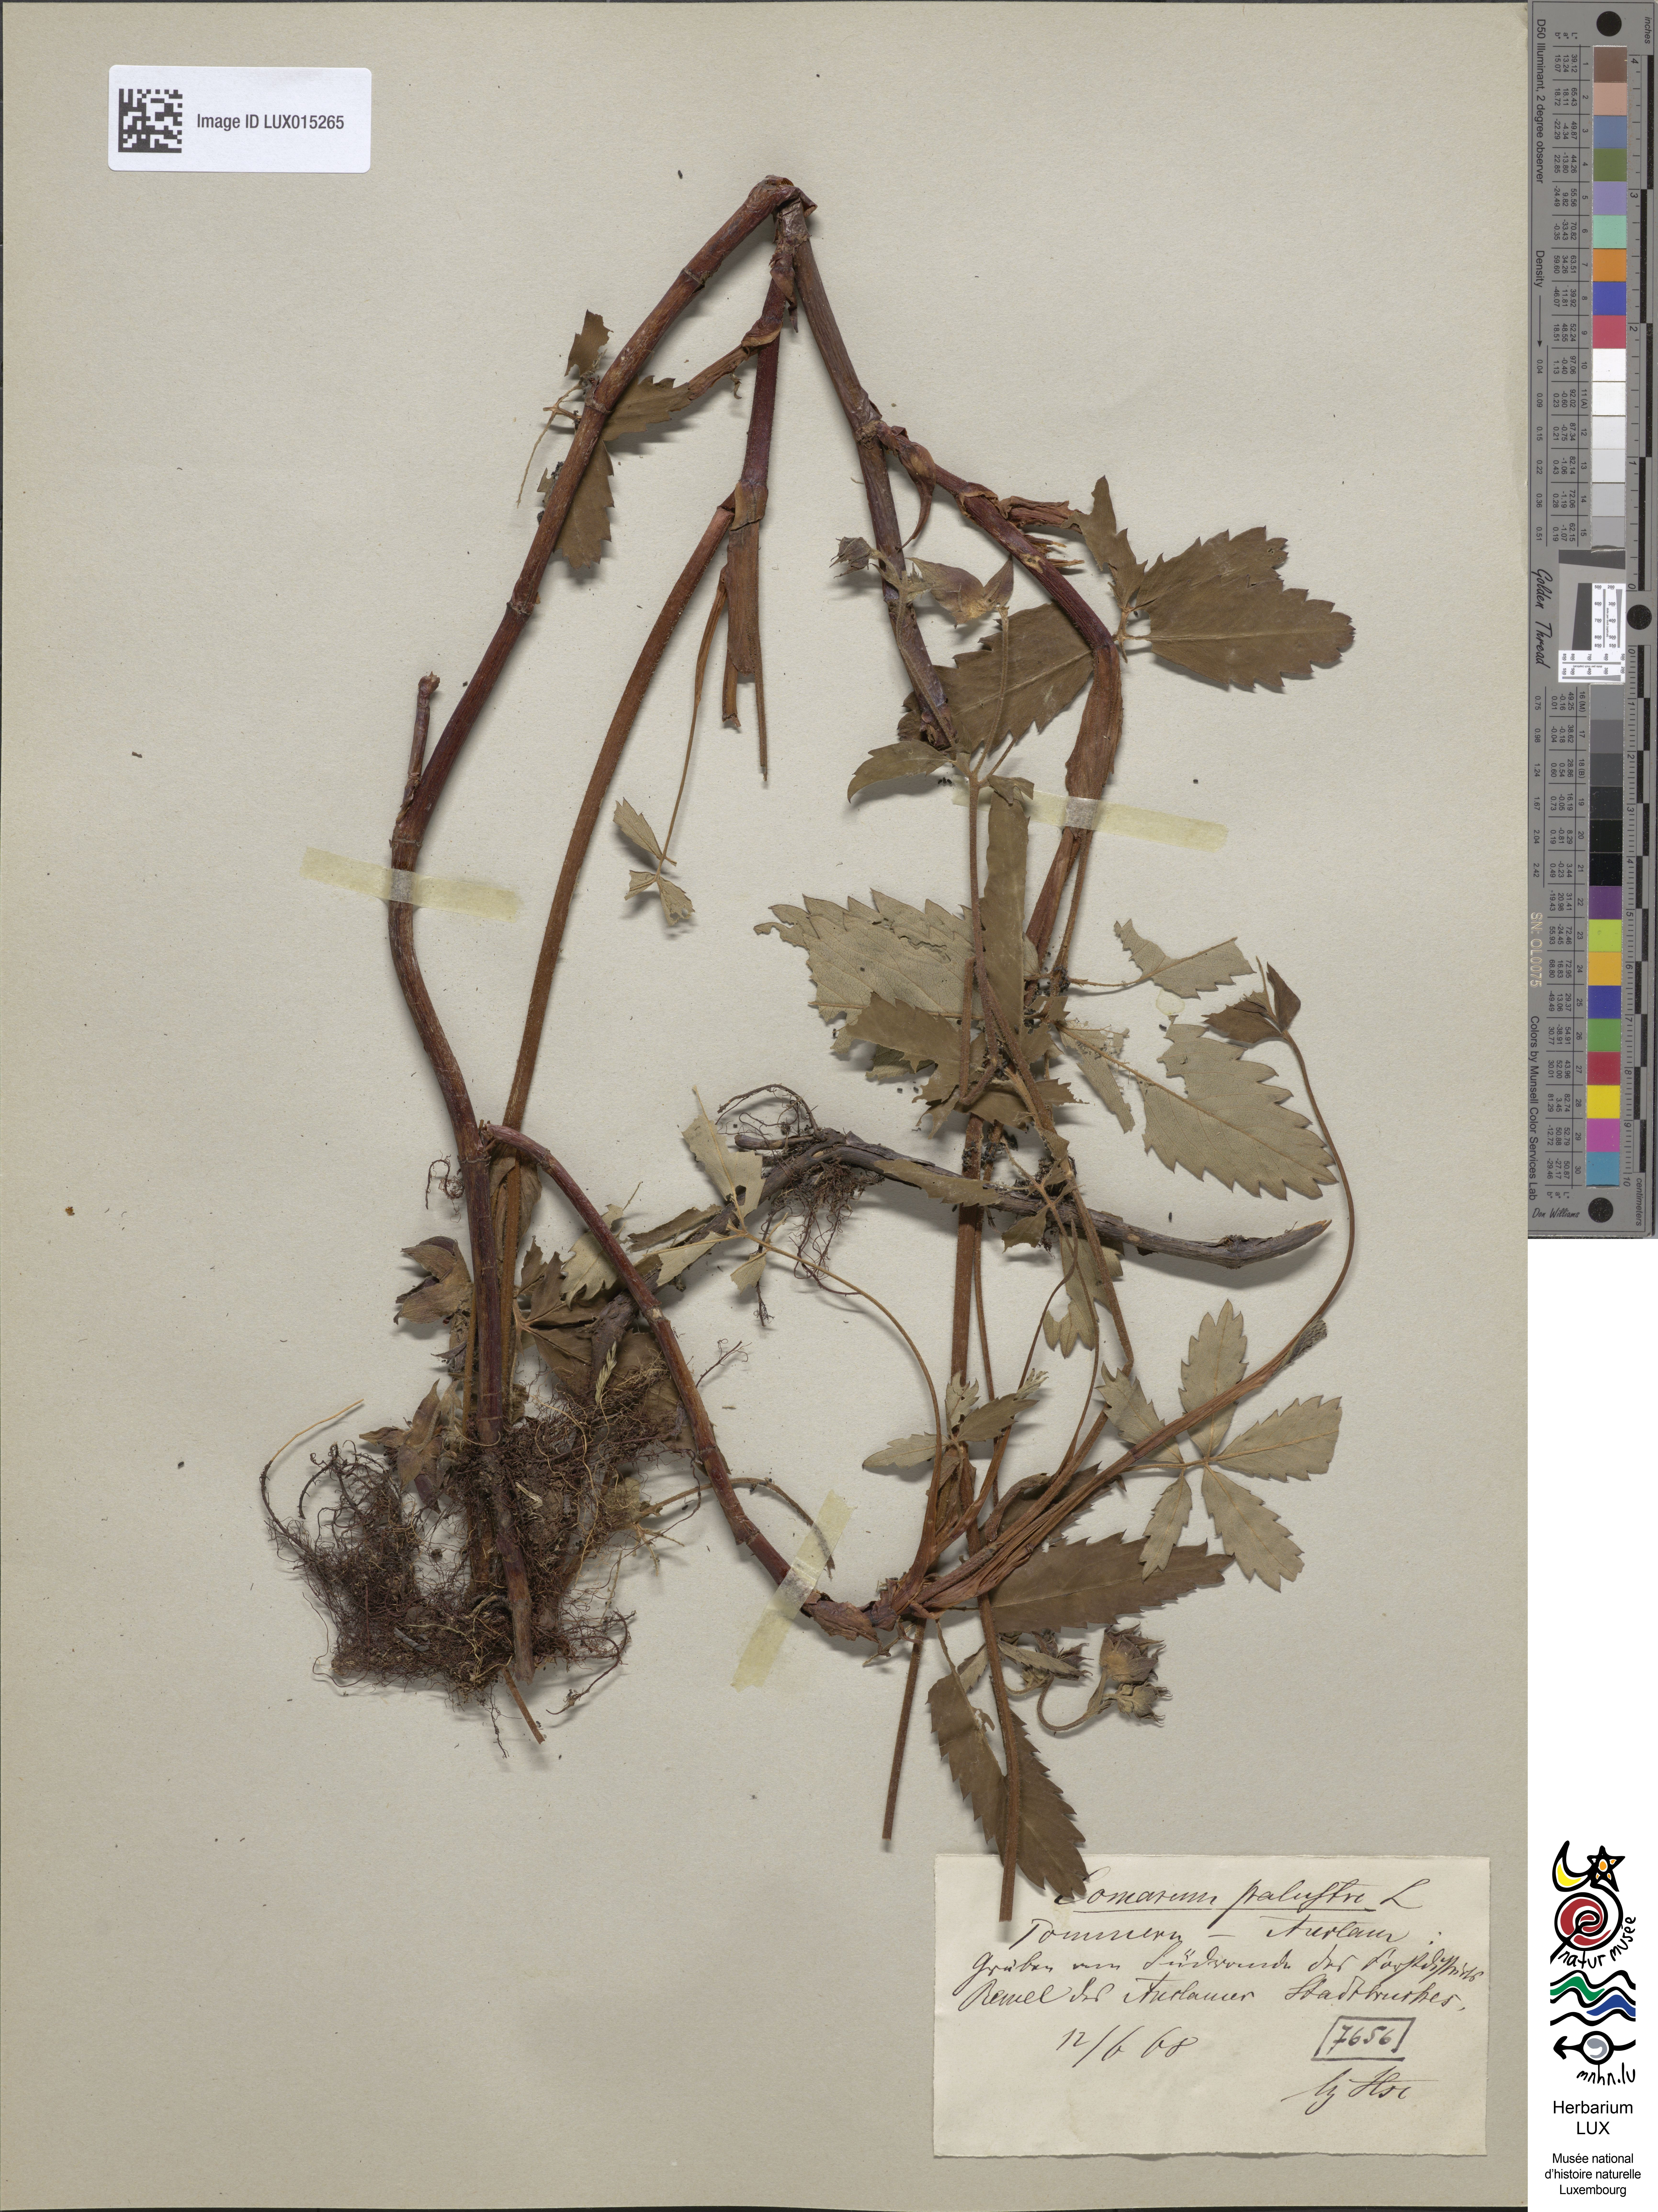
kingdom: Plantae
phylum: Tracheophyta
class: Magnoliopsida
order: Rosales
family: Rosaceae
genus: Comarum
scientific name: Comarum palustre
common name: Marsh cinquefoil
